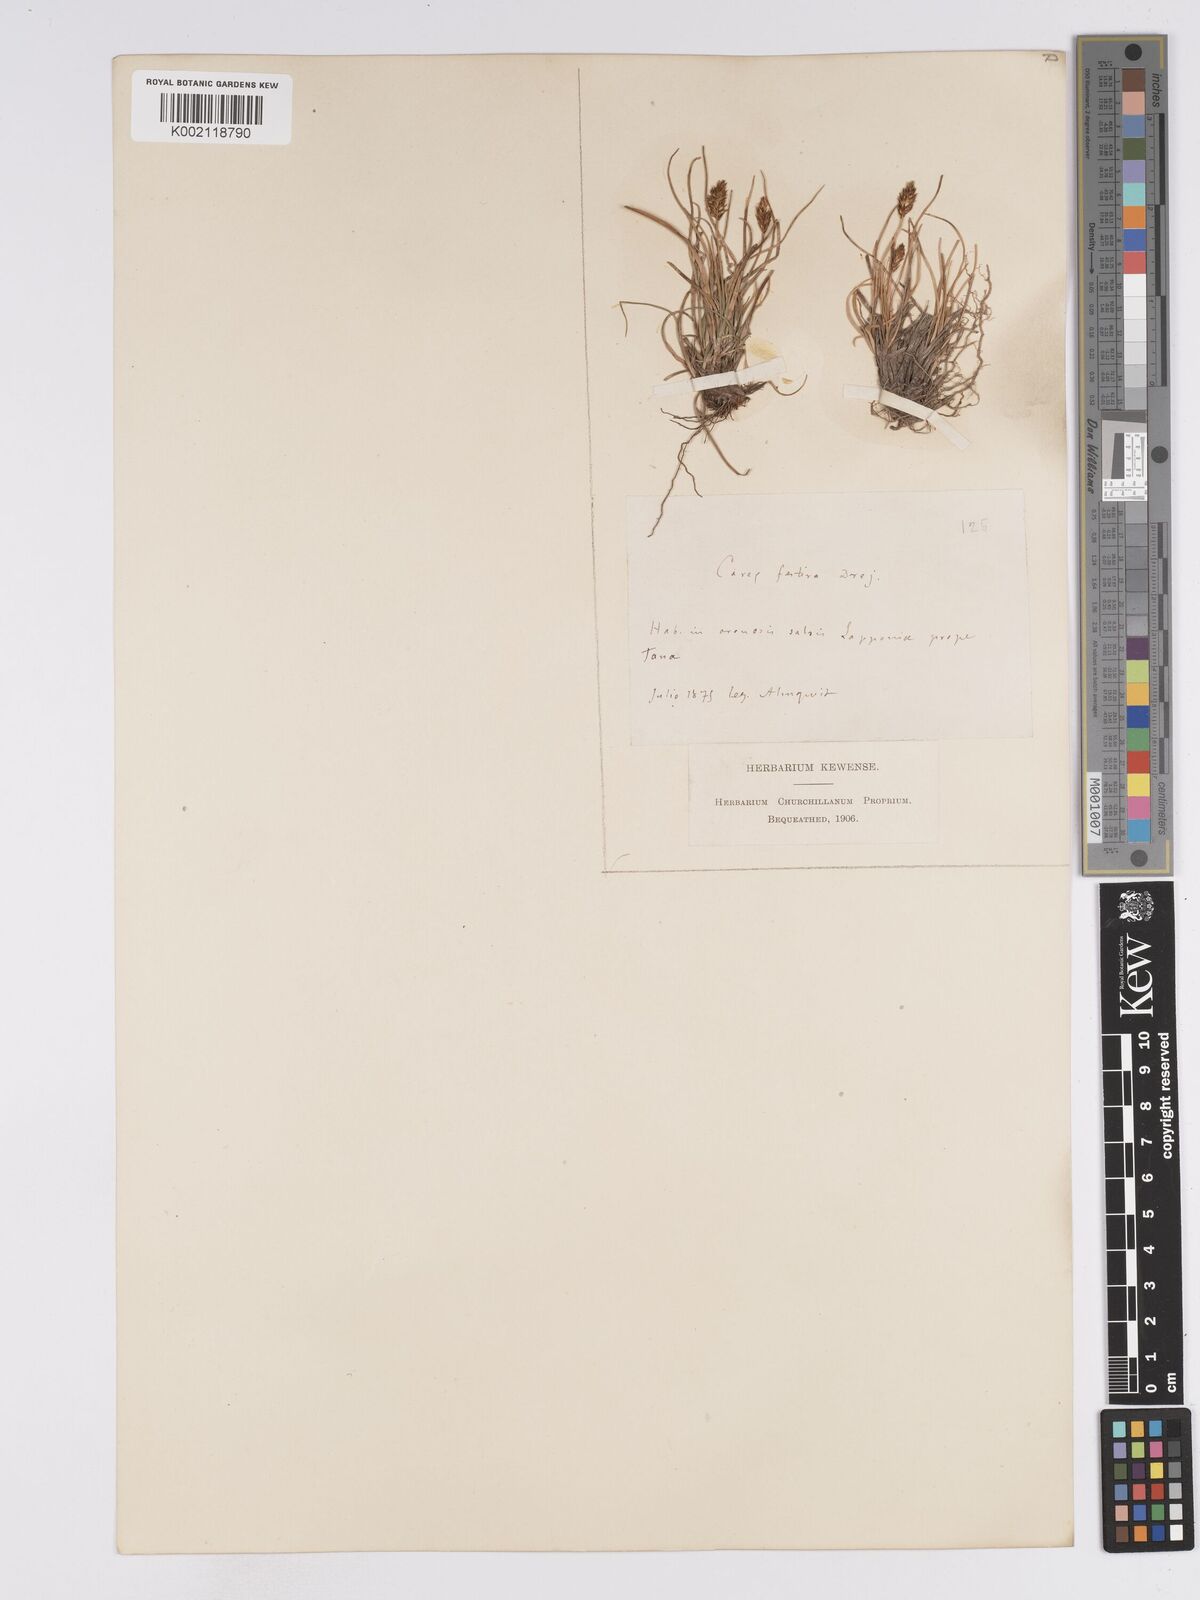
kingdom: Plantae
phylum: Tracheophyta
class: Liliopsida
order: Poales
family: Cyperaceae
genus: Carex
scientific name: Carex macloviana
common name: Falkland island sedge
